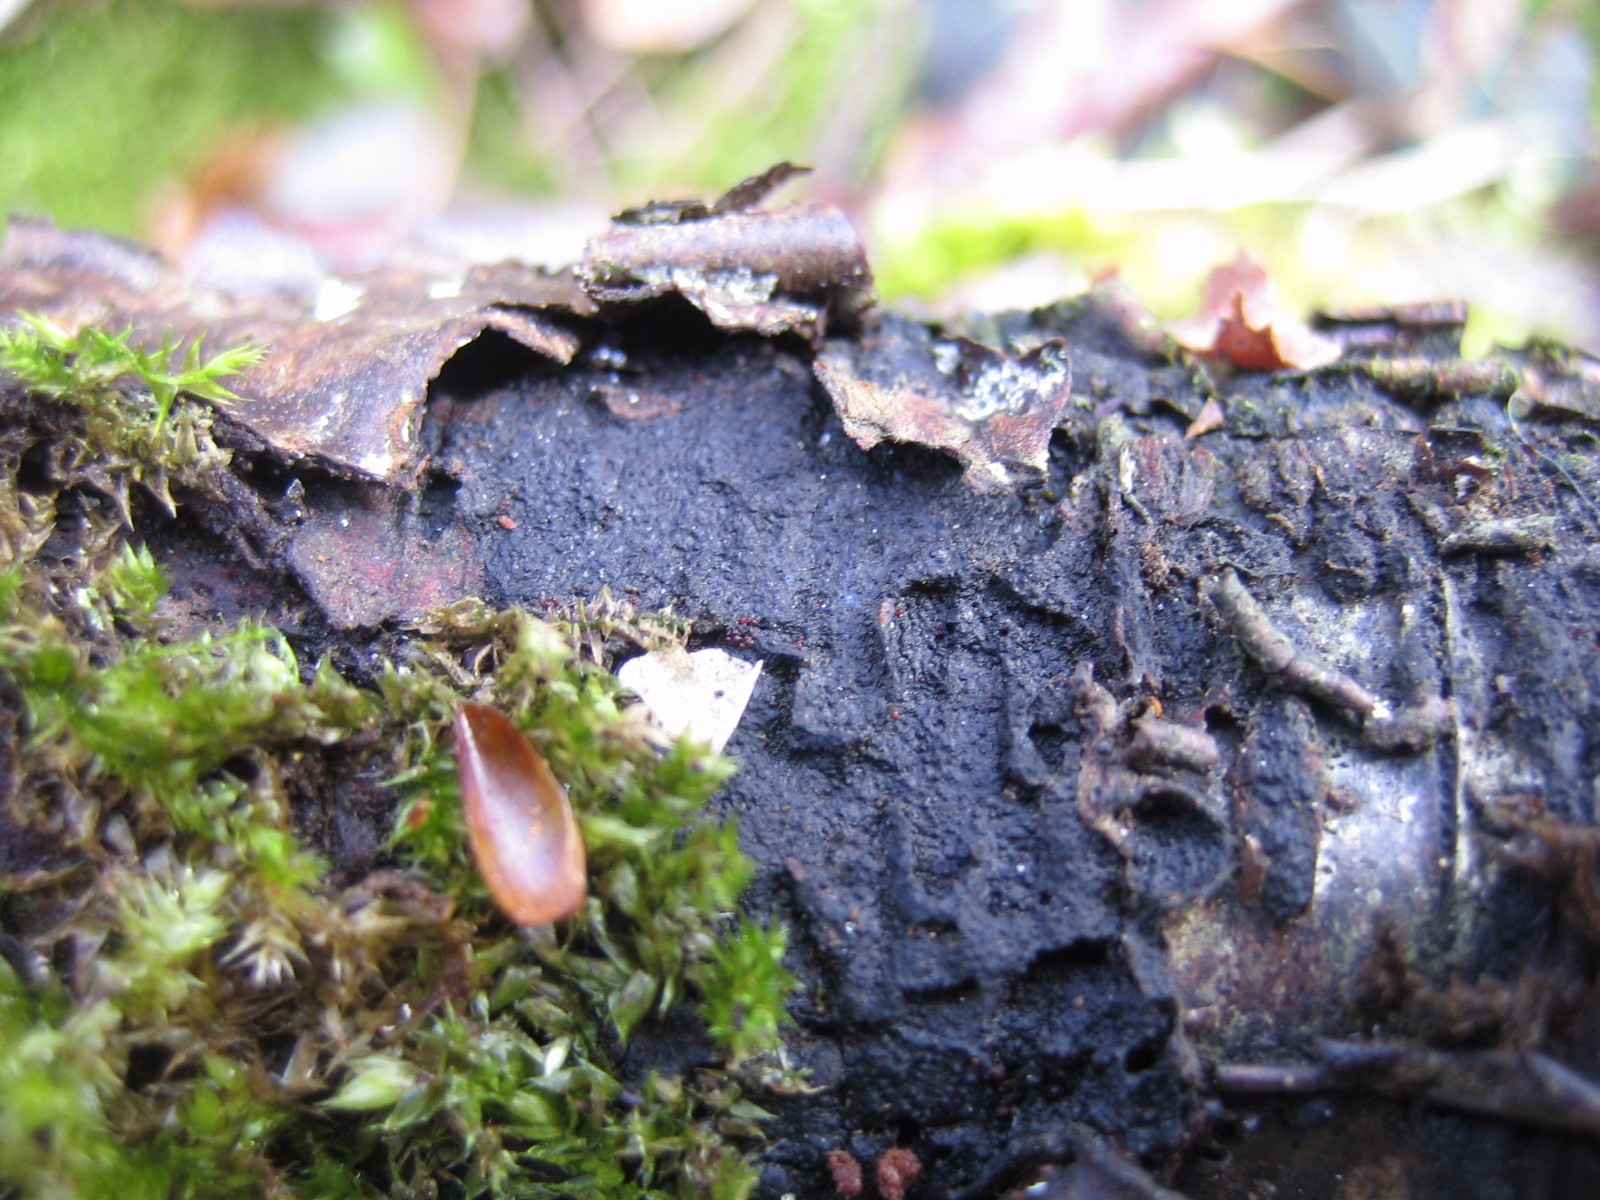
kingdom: Fungi
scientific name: Fungi
